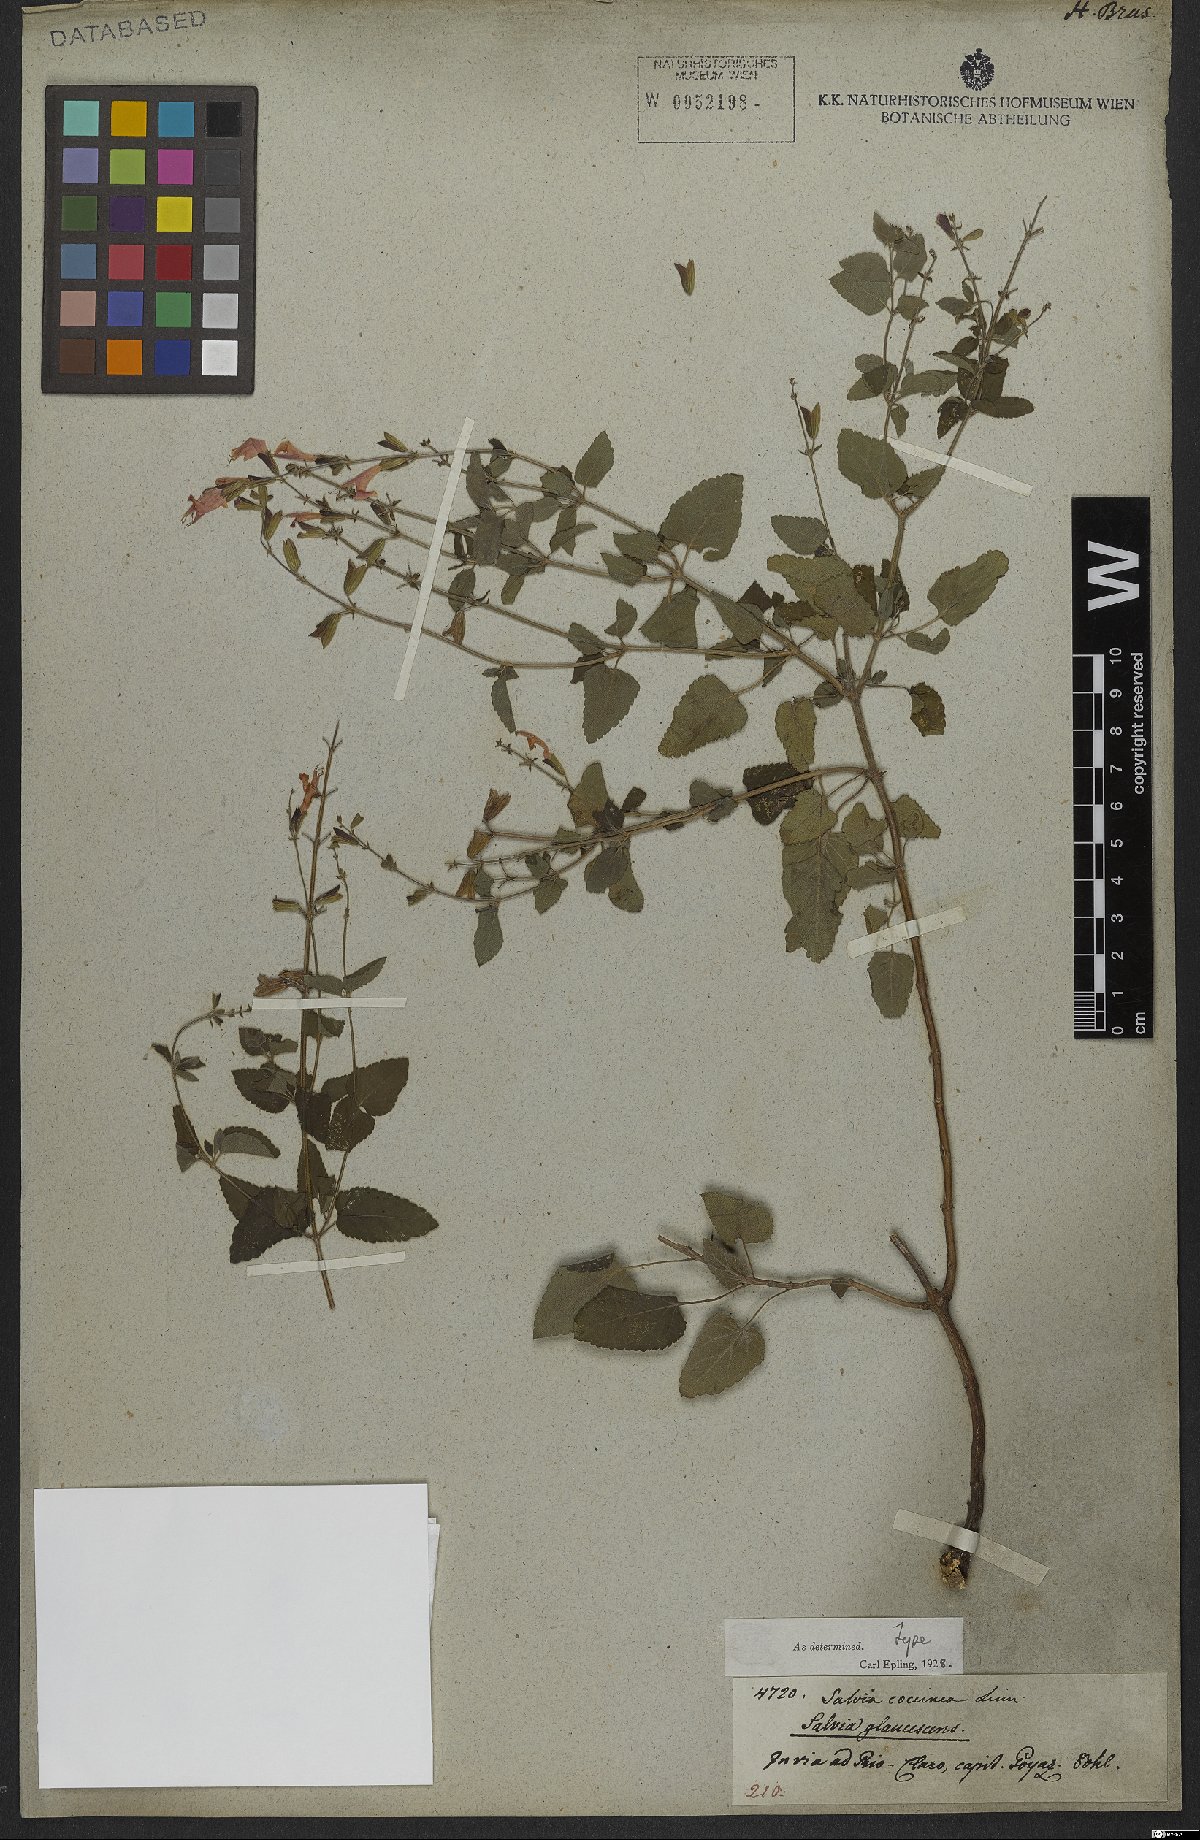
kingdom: Plantae
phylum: Tracheophyta
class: Magnoliopsida
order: Lamiales
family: Lamiaceae
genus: Salvia
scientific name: Salvia coccinea
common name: Blood sage
